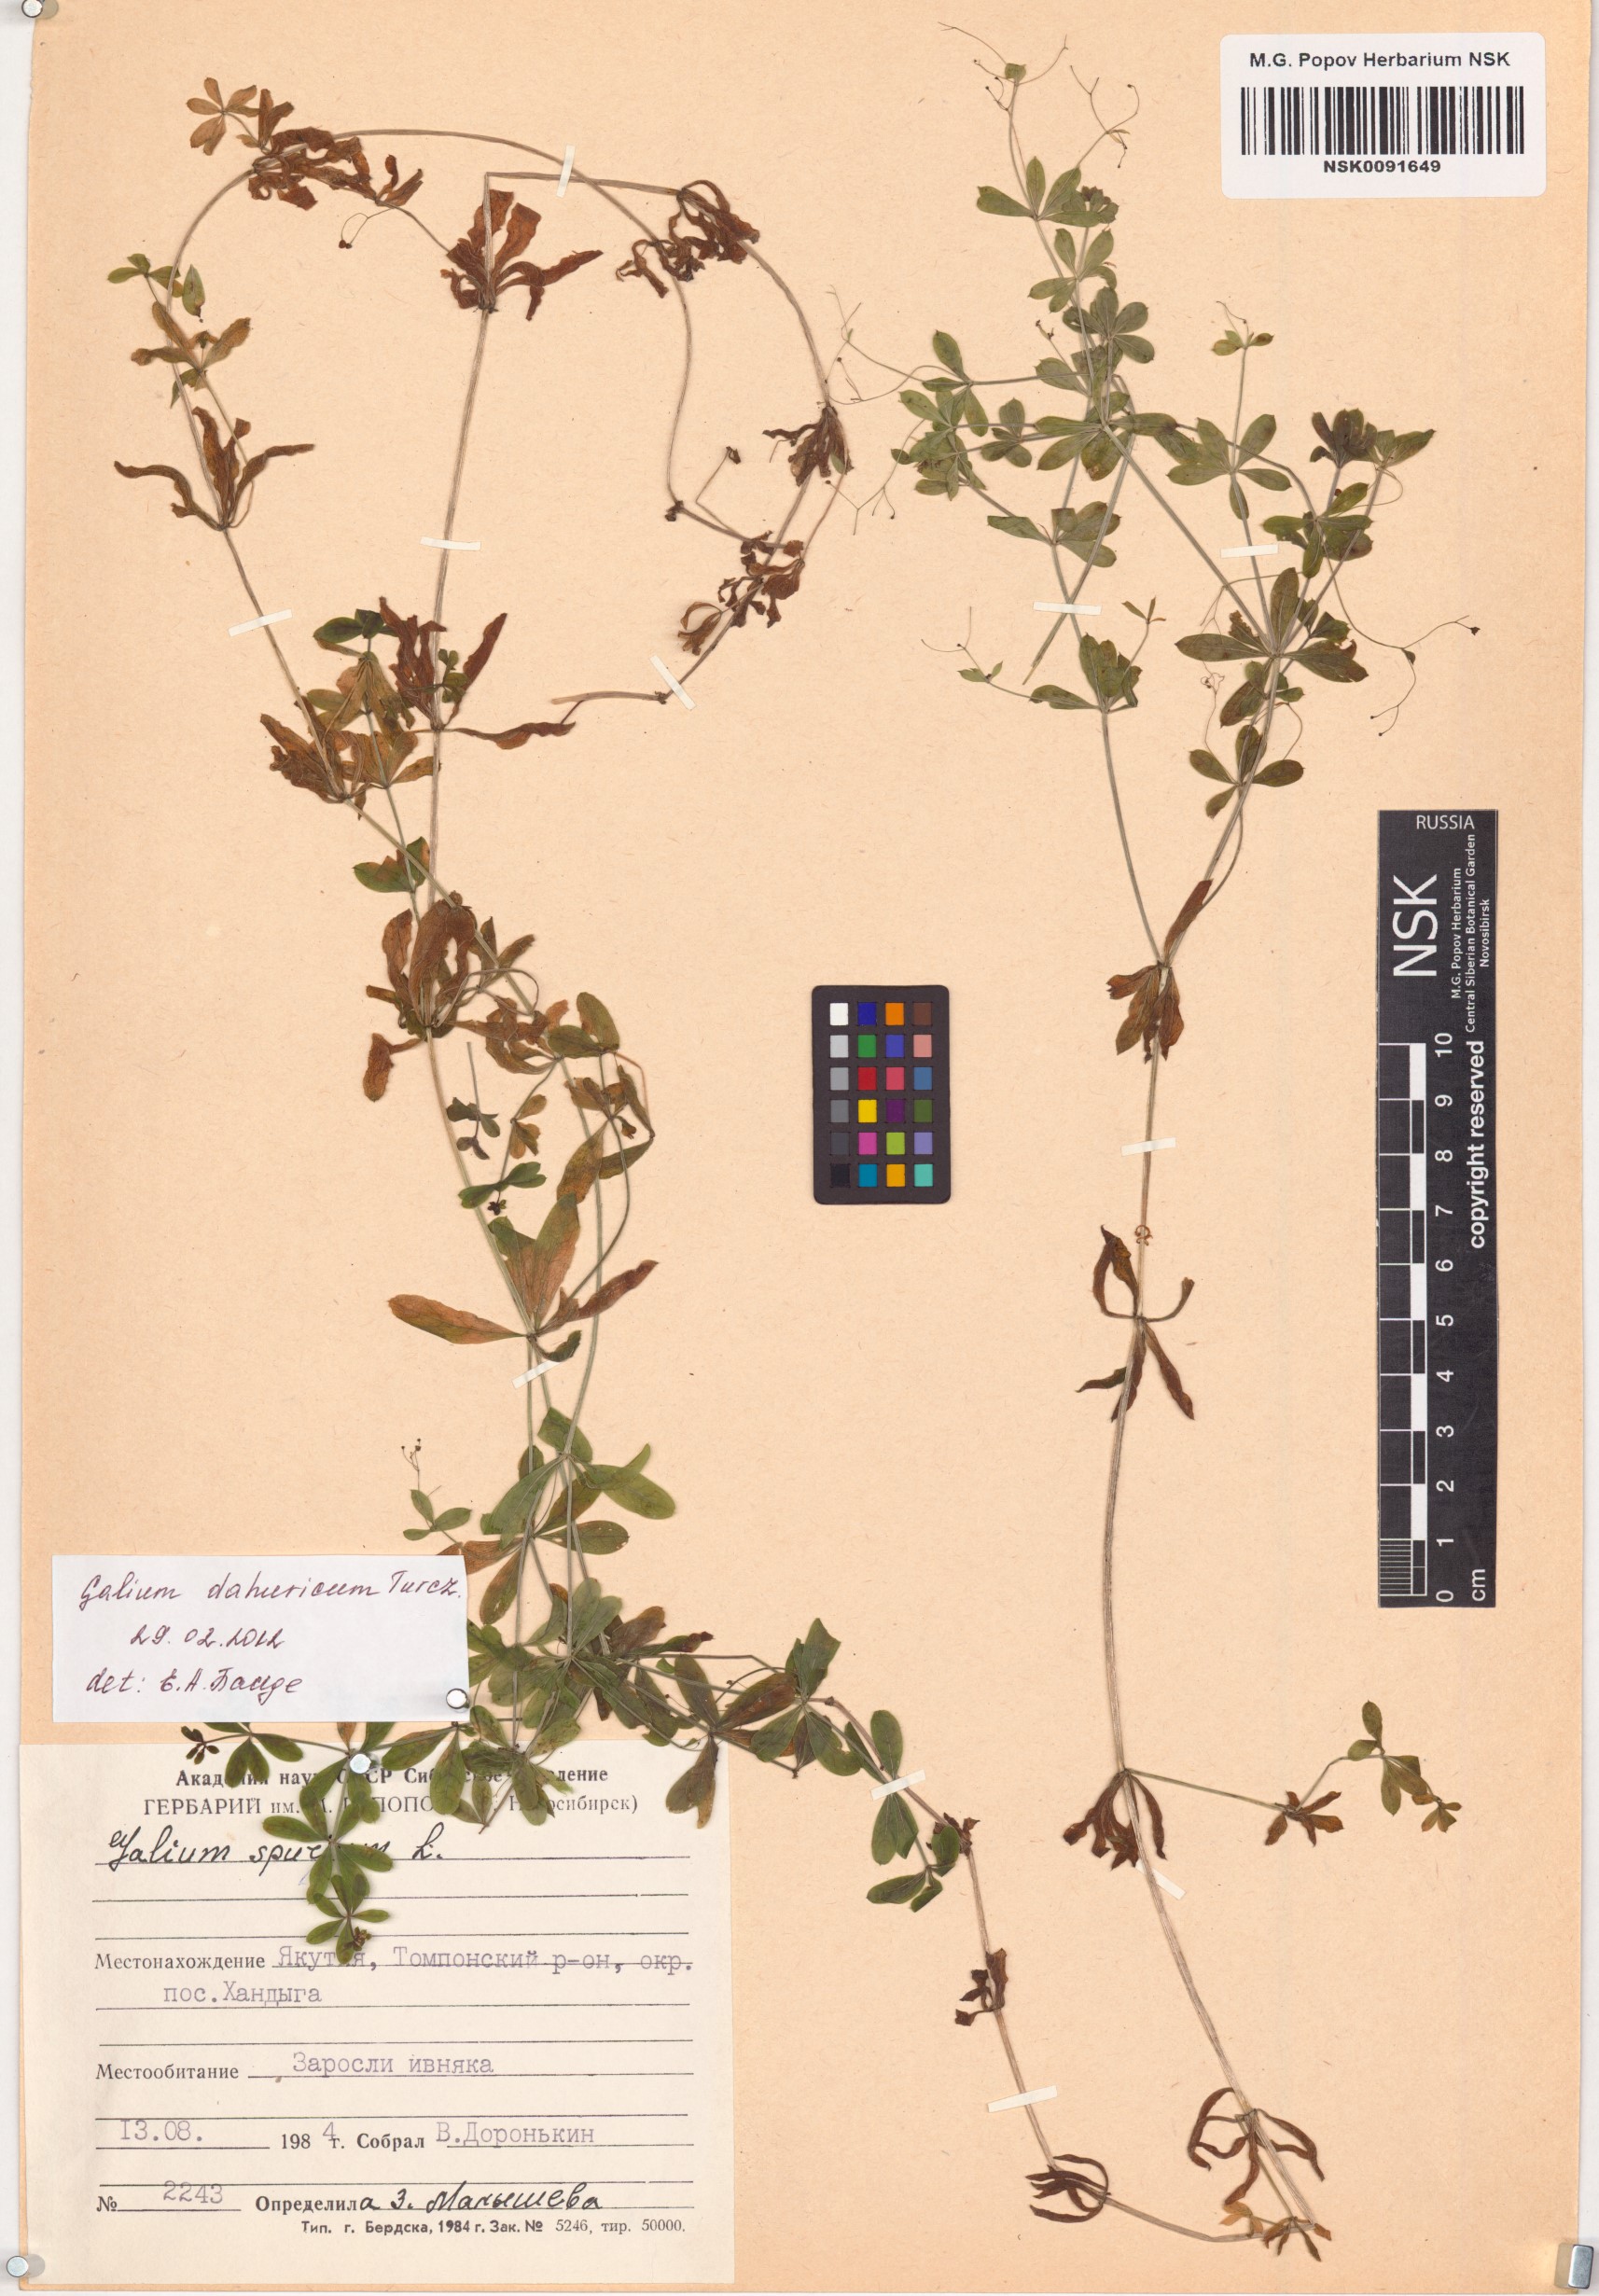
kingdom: Plantae
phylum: Tracheophyta
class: Magnoliopsida
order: Gentianales
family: Rubiaceae
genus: Galium
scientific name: Galium dahuricum
